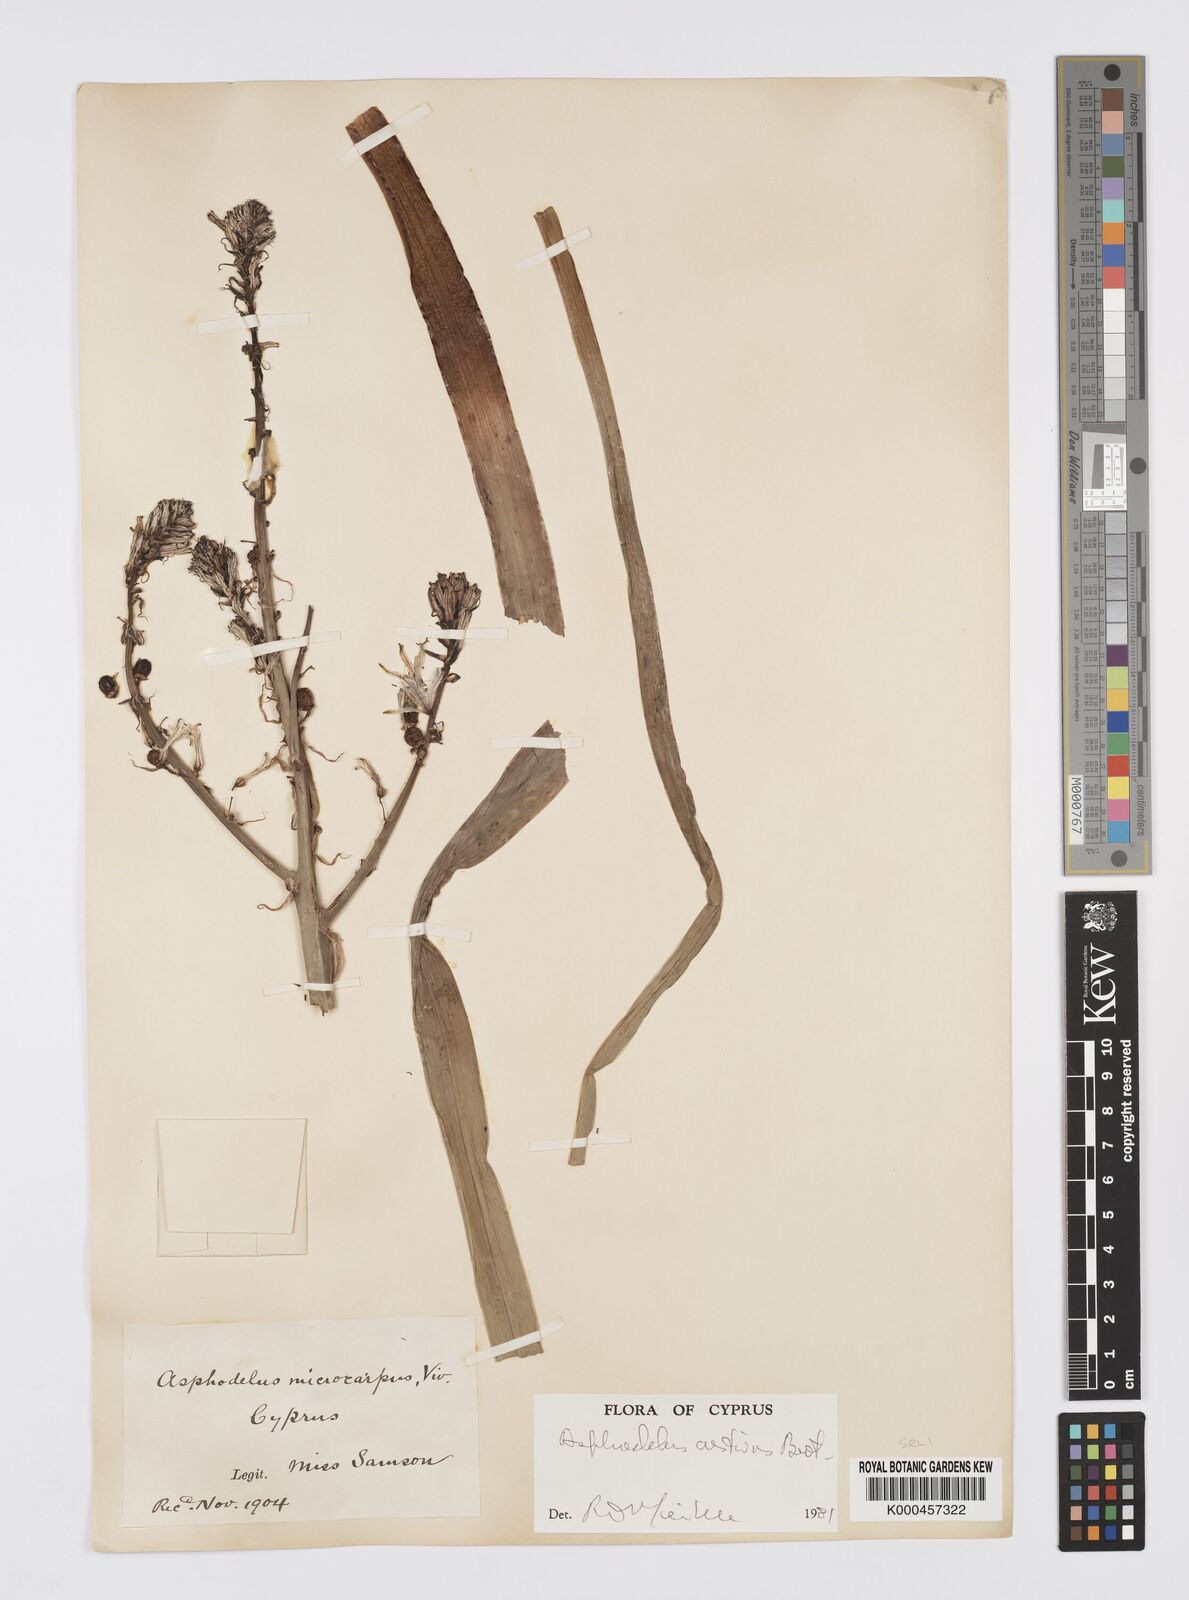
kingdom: Plantae
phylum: Tracheophyta
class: Liliopsida
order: Asparagales
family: Asphodelaceae
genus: Asphodelus
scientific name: Asphodelus aestivus
